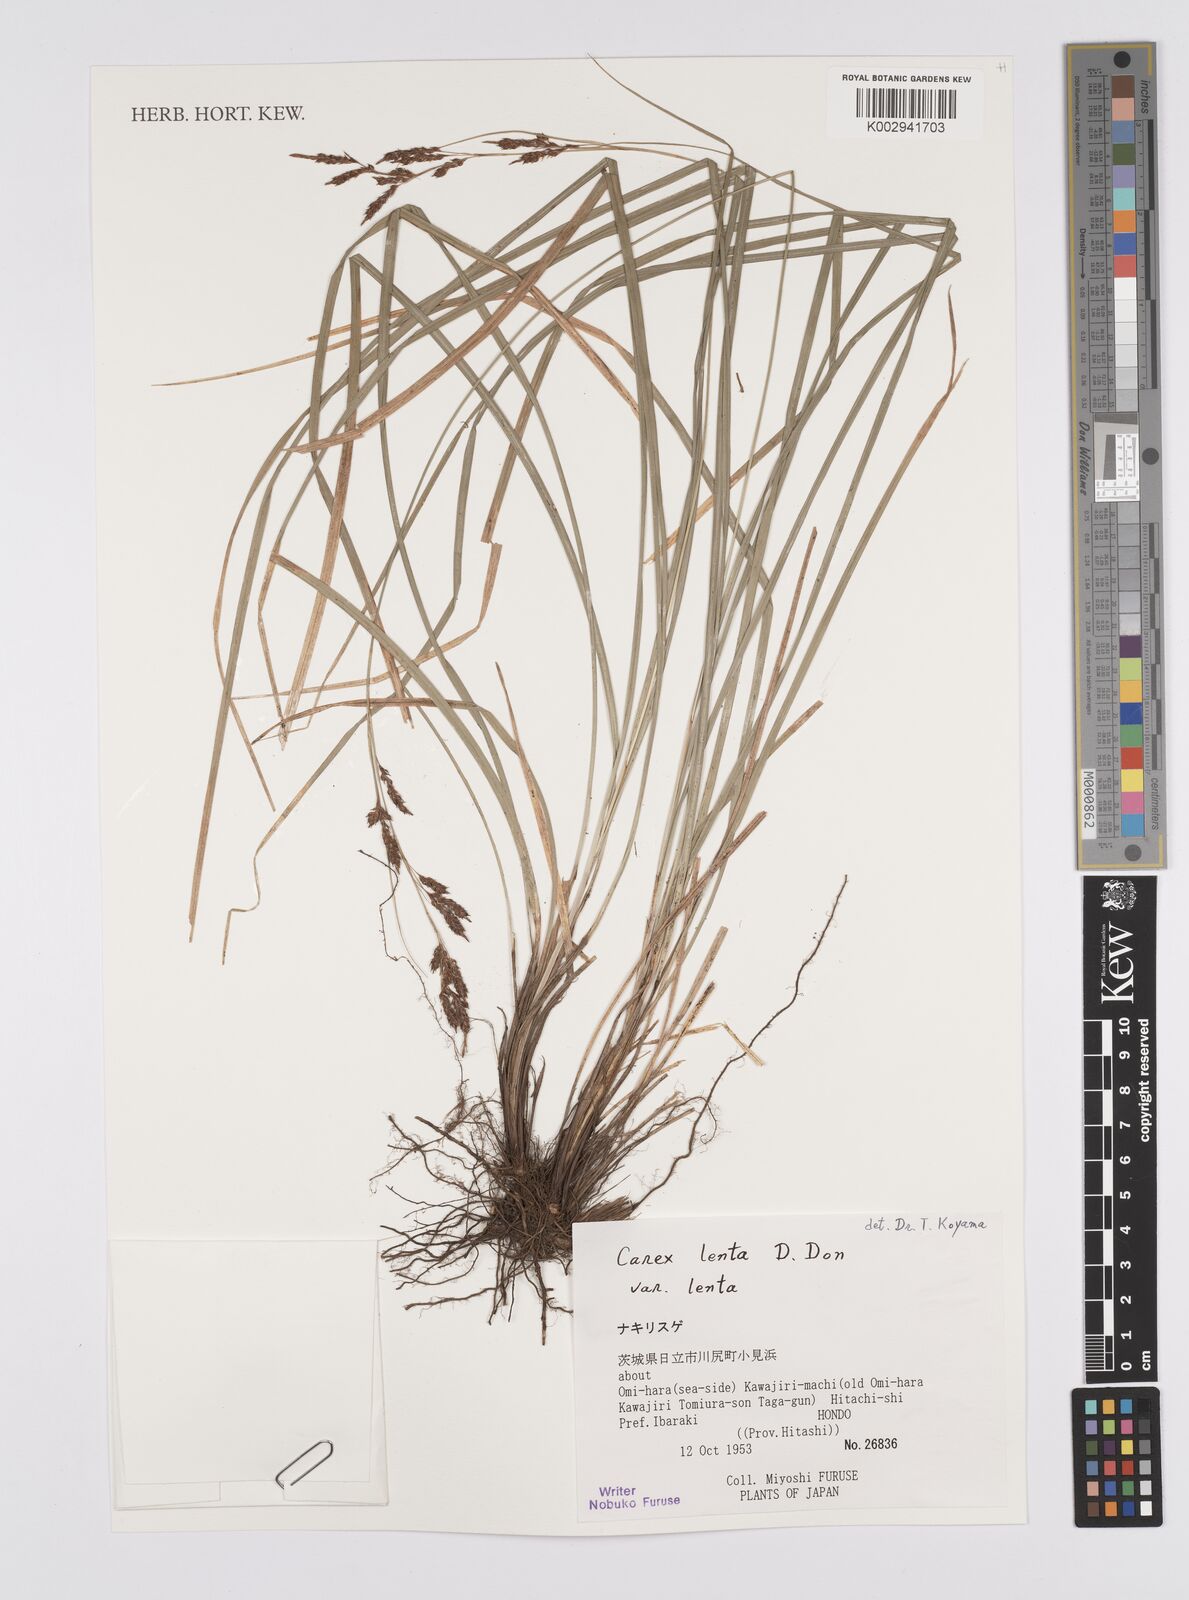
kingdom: Plantae
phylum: Tracheophyta
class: Liliopsida
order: Poales
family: Cyperaceae
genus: Carex
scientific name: Carex brunnea
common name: Greater brown sedge
